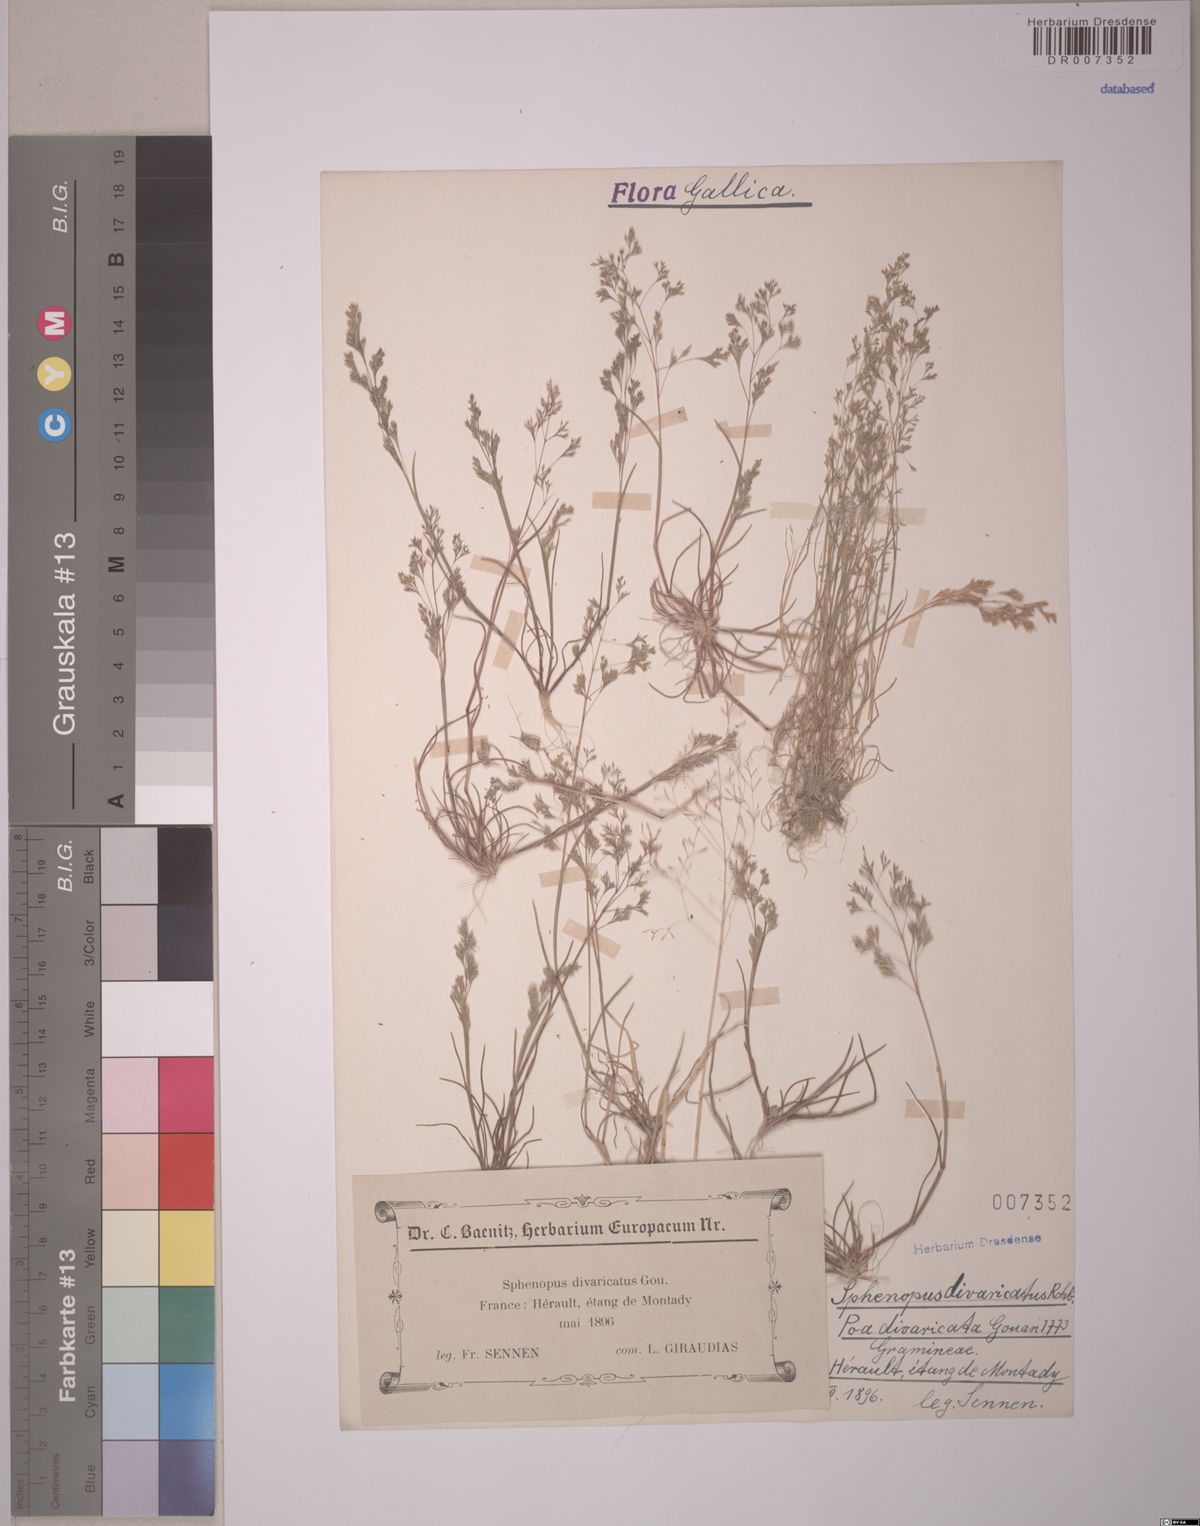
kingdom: Plantae
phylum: Tracheophyta
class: Liliopsida
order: Poales
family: Poaceae
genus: Sphenopus
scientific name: Sphenopus divaricatus
